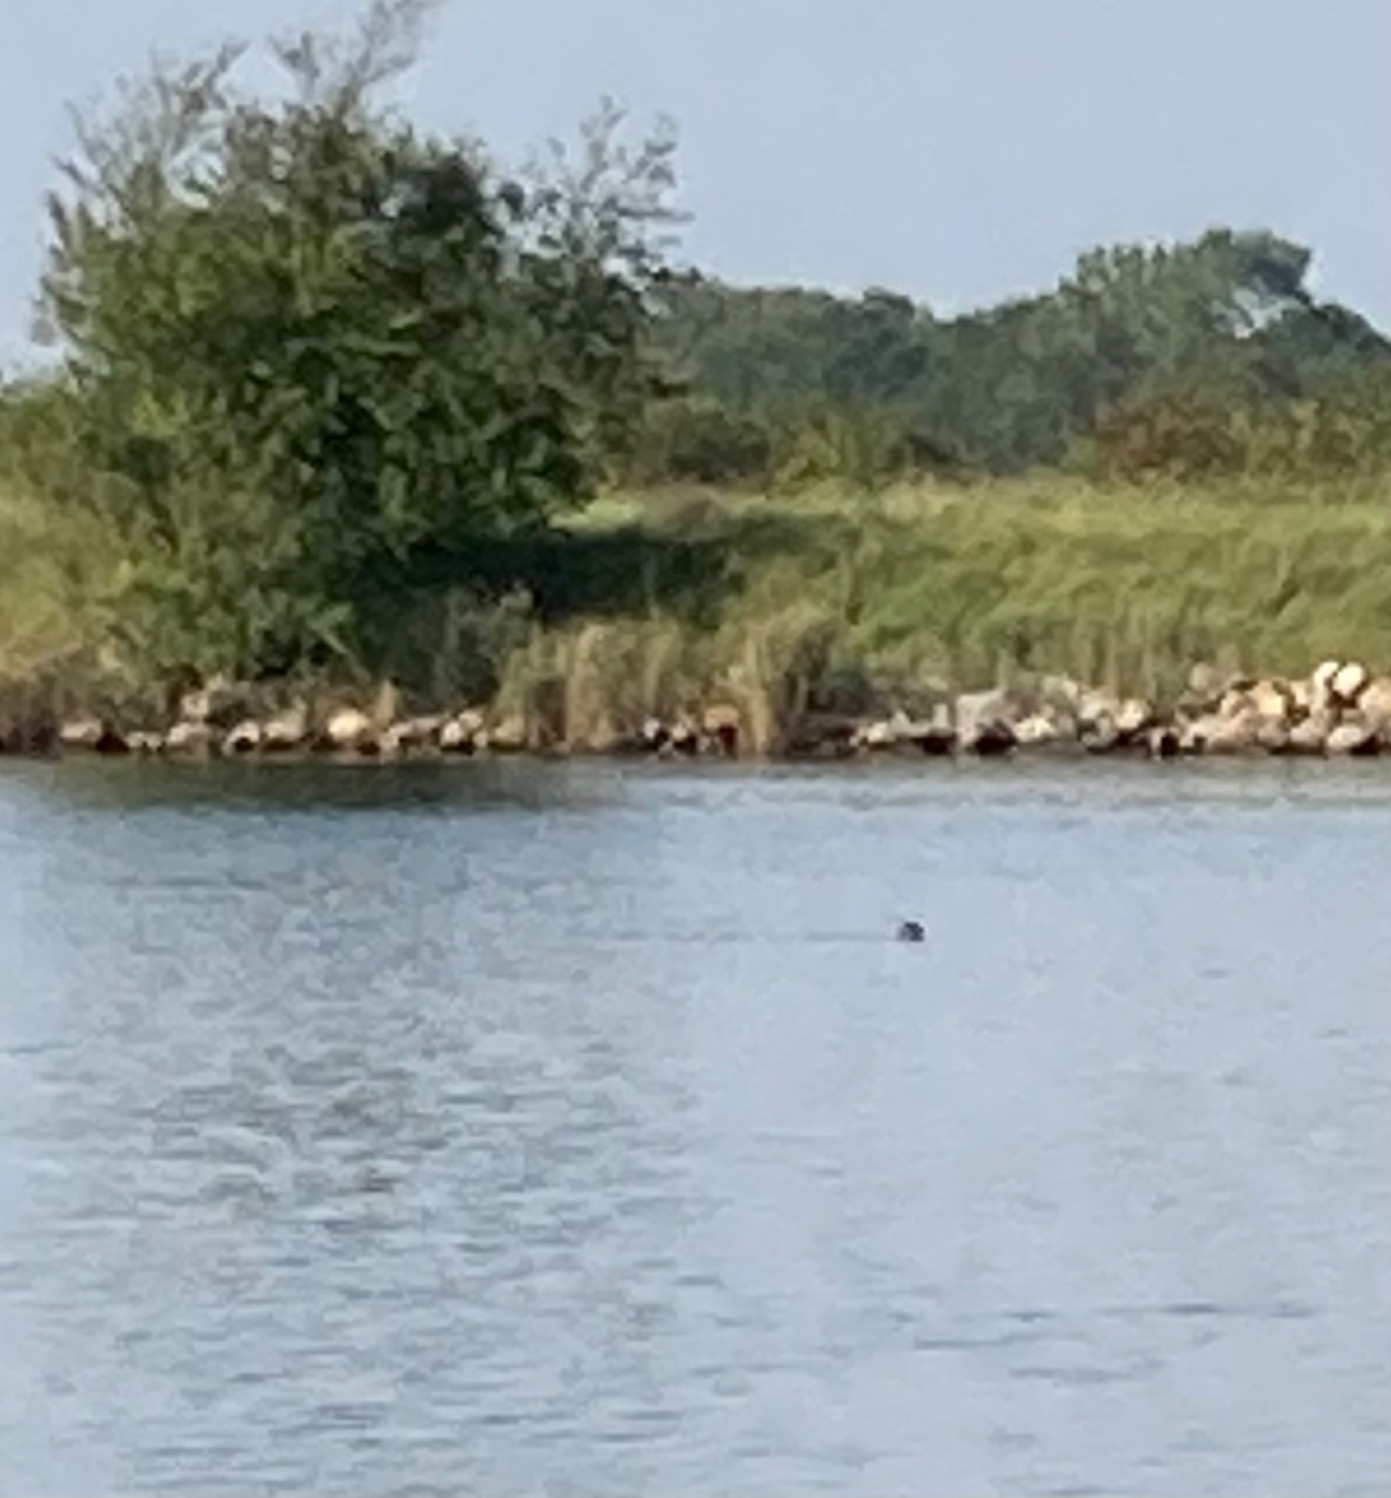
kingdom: Animalia
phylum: Chordata
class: Mammalia
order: Carnivora
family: Phocidae
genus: Phoca
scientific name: Phoca vitulina
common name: Spættet sæl
